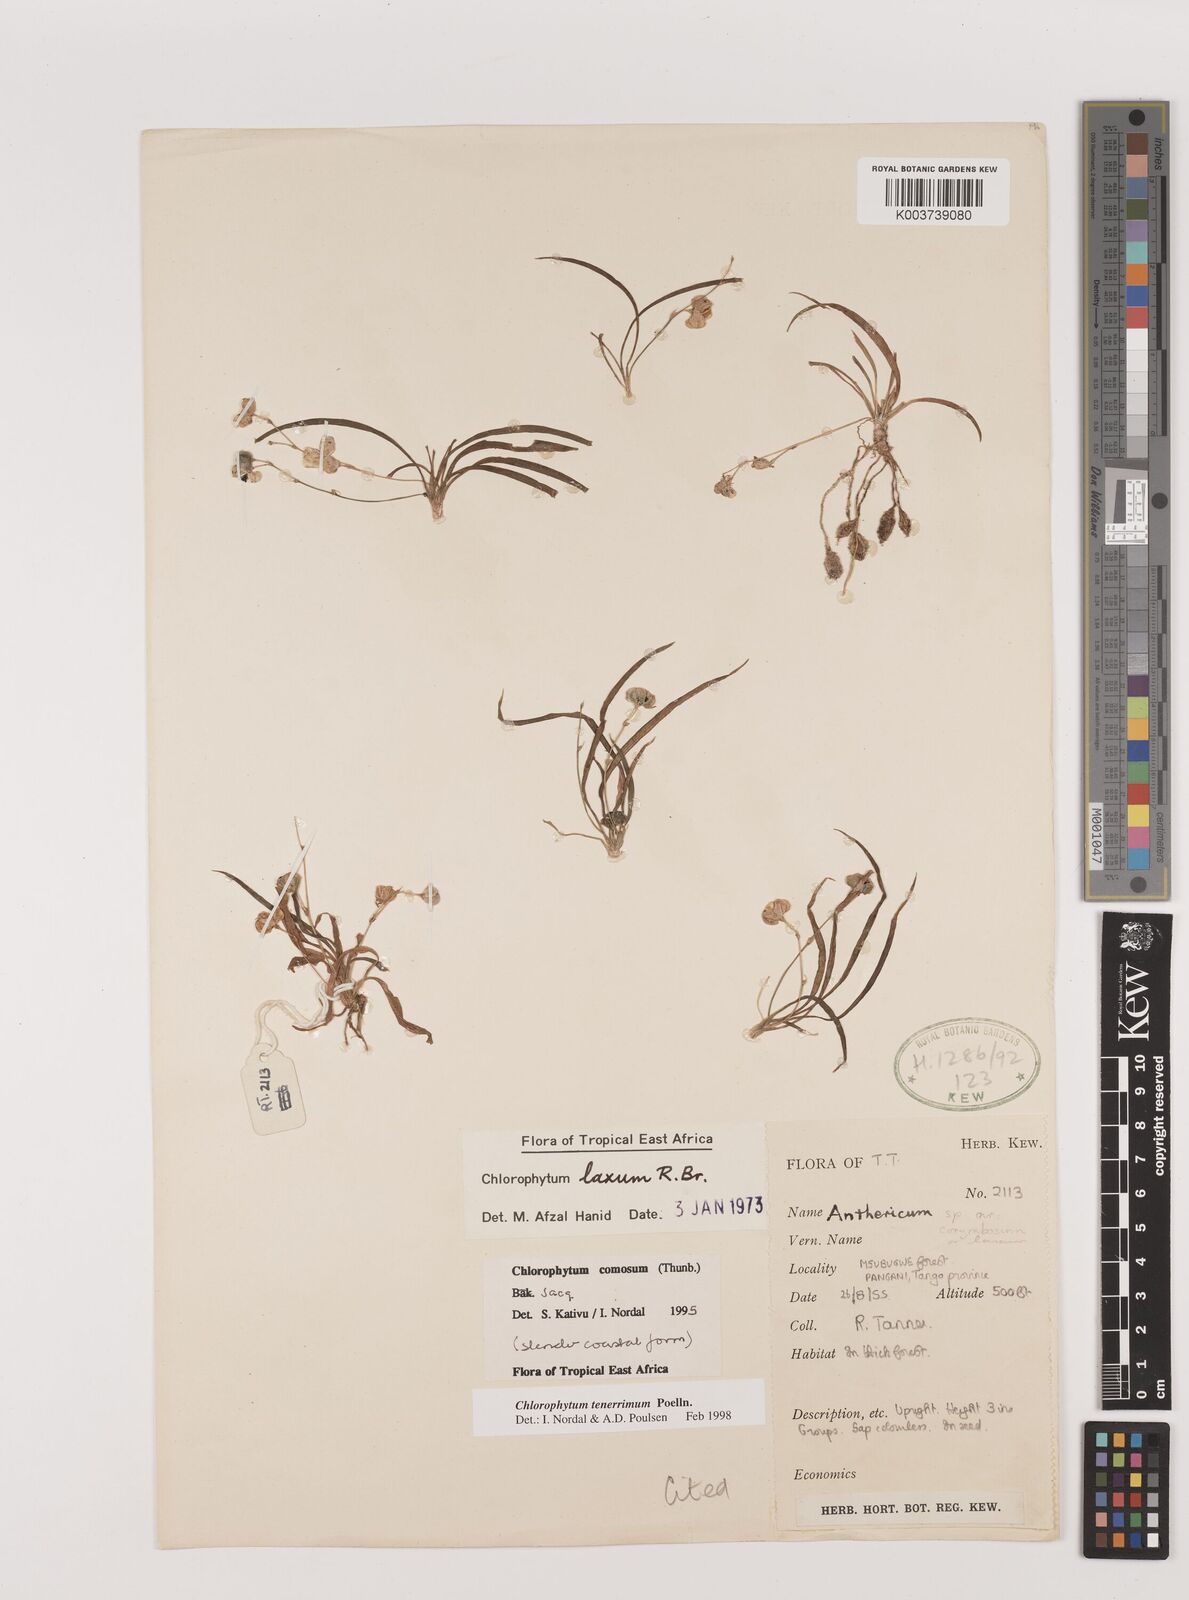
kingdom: Plantae
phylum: Tracheophyta
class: Liliopsida
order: Asparagales
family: Asparagaceae
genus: Chlorophytum
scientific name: Chlorophytum tenerrimum
